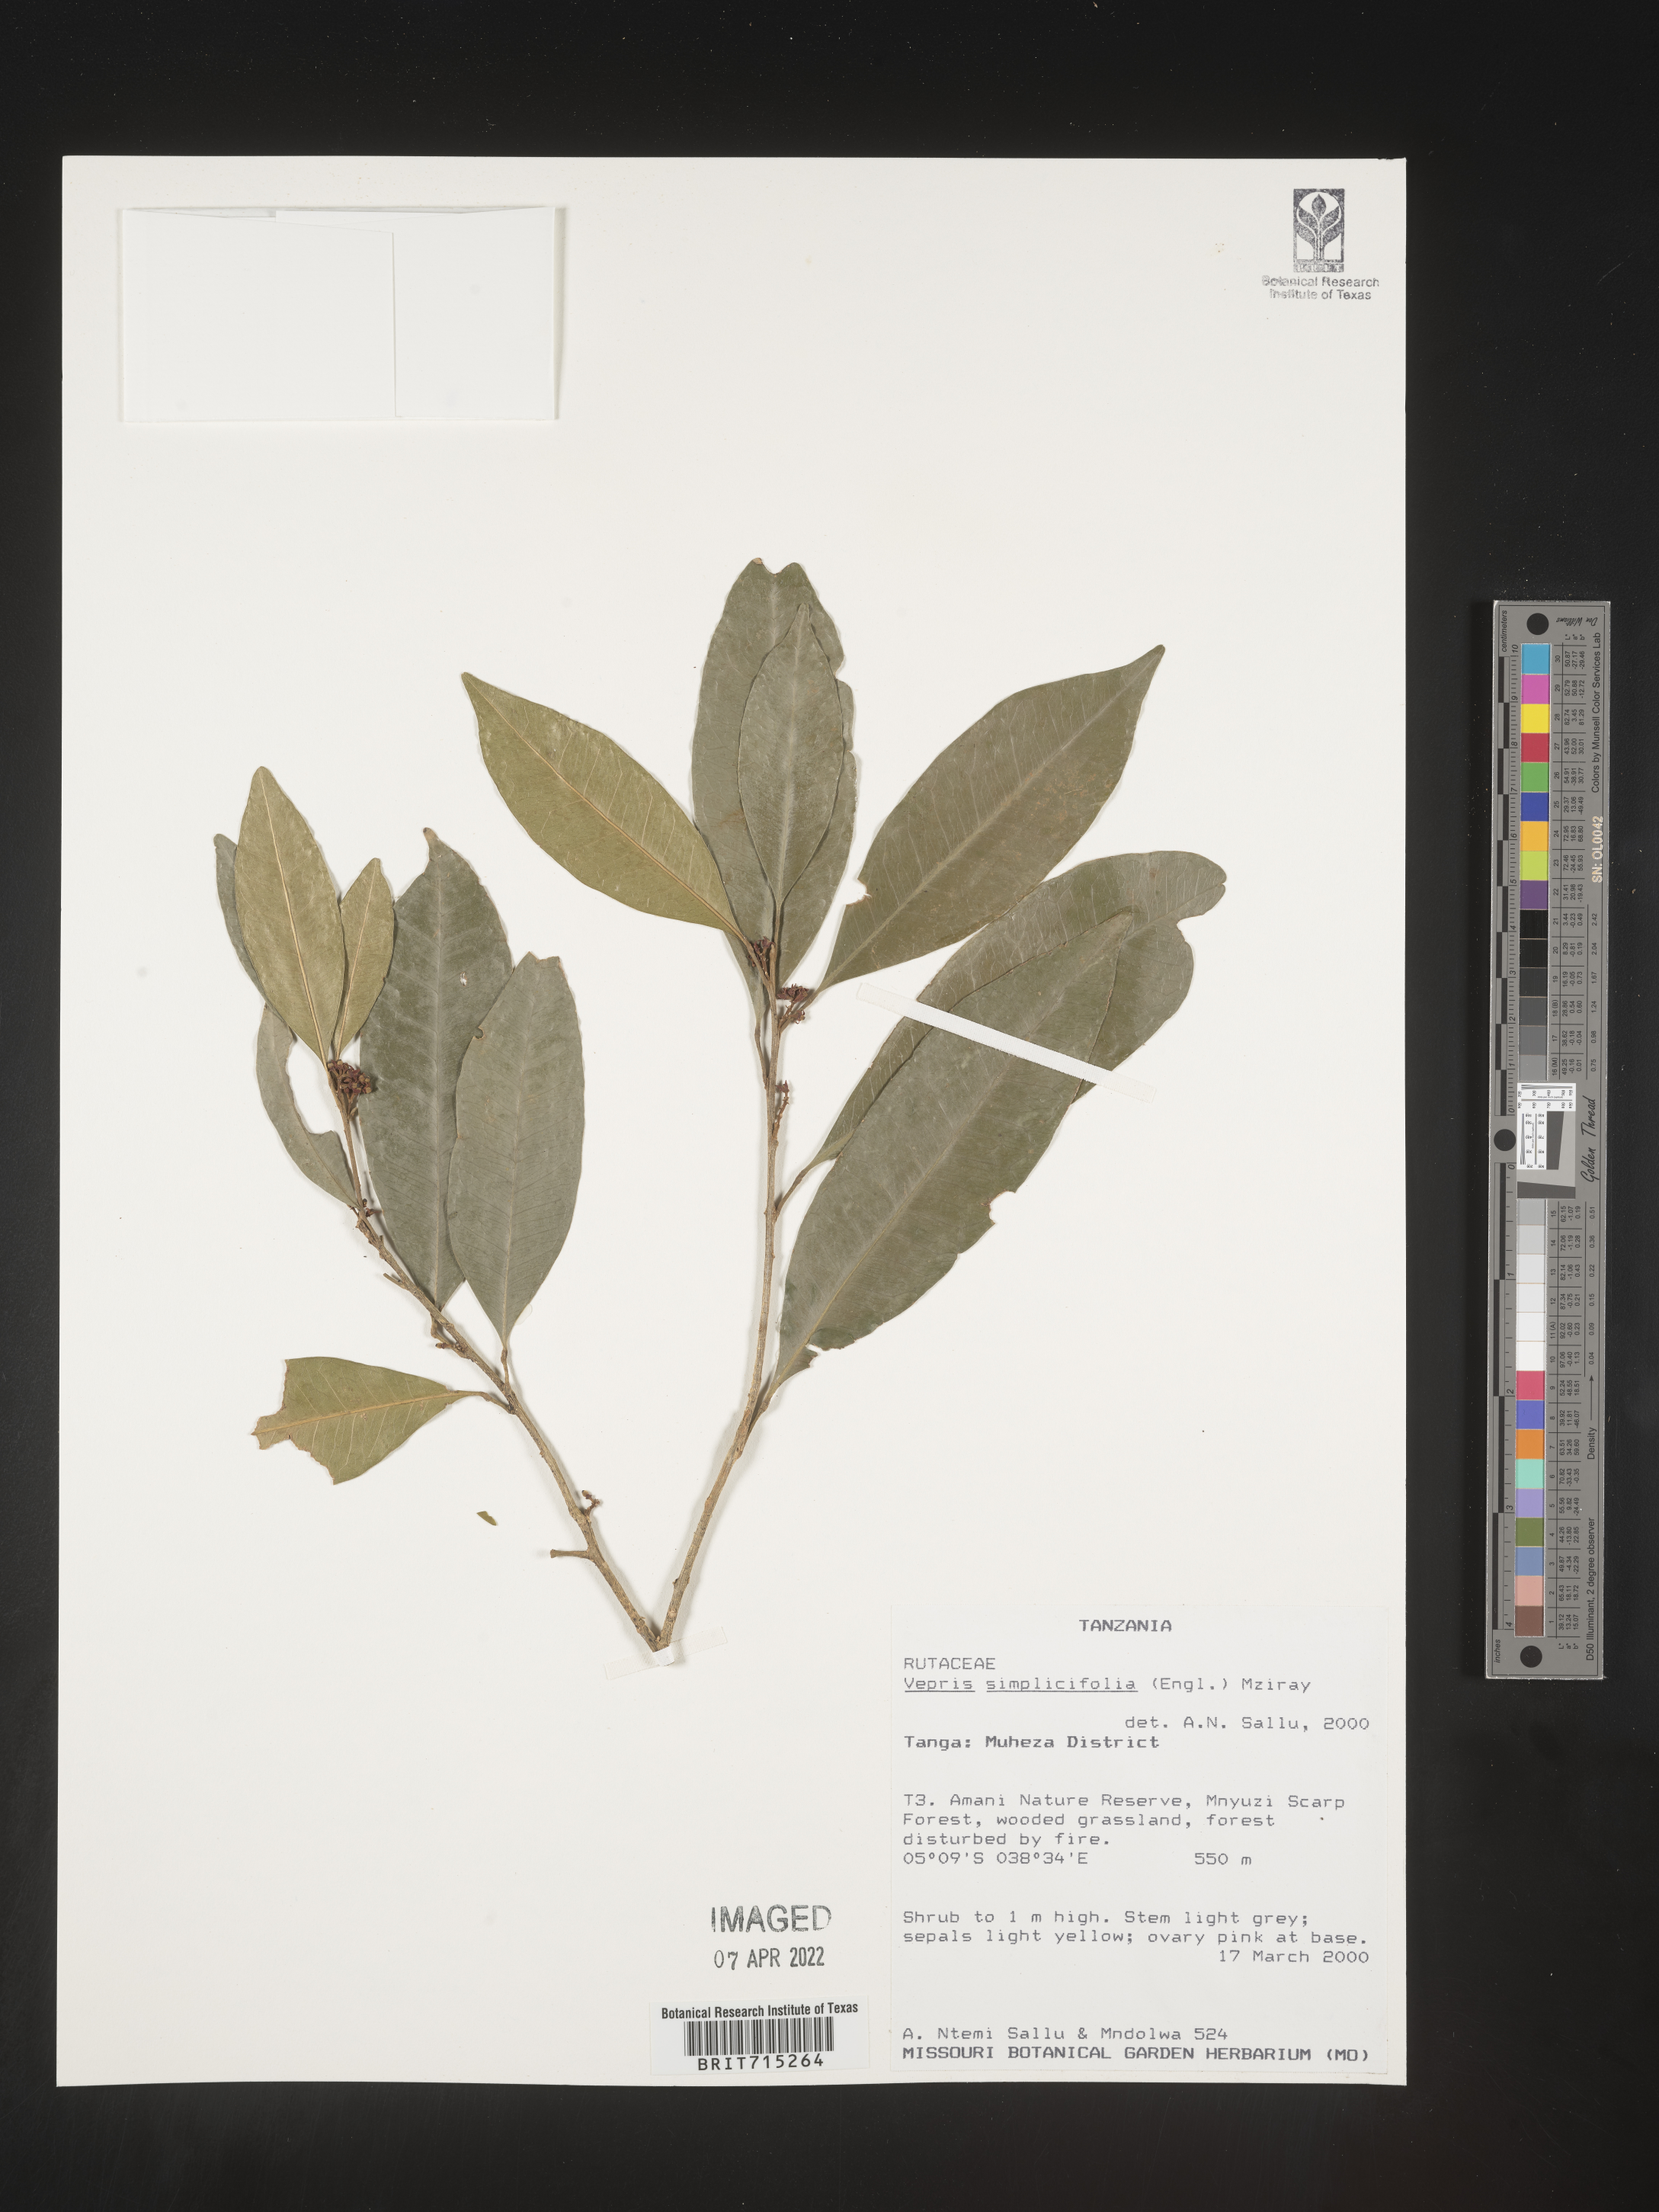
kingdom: Plantae
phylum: Tracheophyta
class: Magnoliopsida
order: Sapindales
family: Rutaceae
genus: Vepris
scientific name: Vepris
